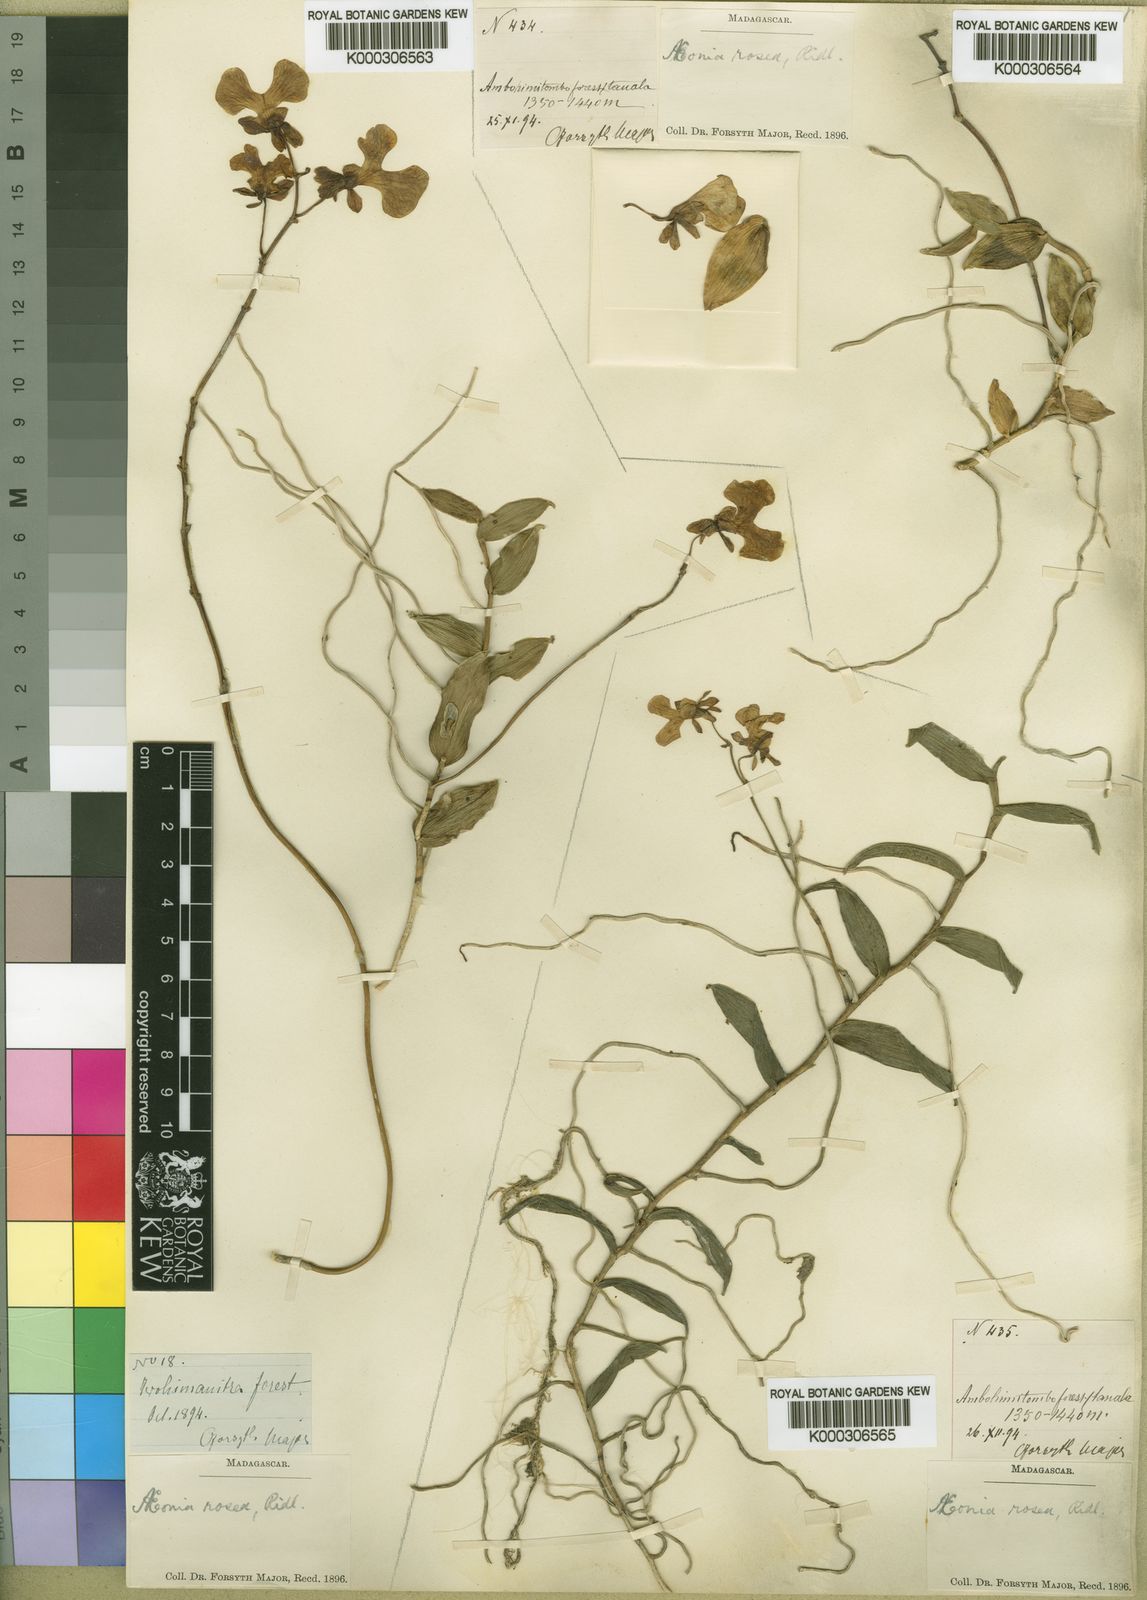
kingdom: Plantae
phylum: Tracheophyta
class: Liliopsida
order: Asparagales
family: Orchidaceae
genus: Oeonia
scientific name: Oeonia rosea
